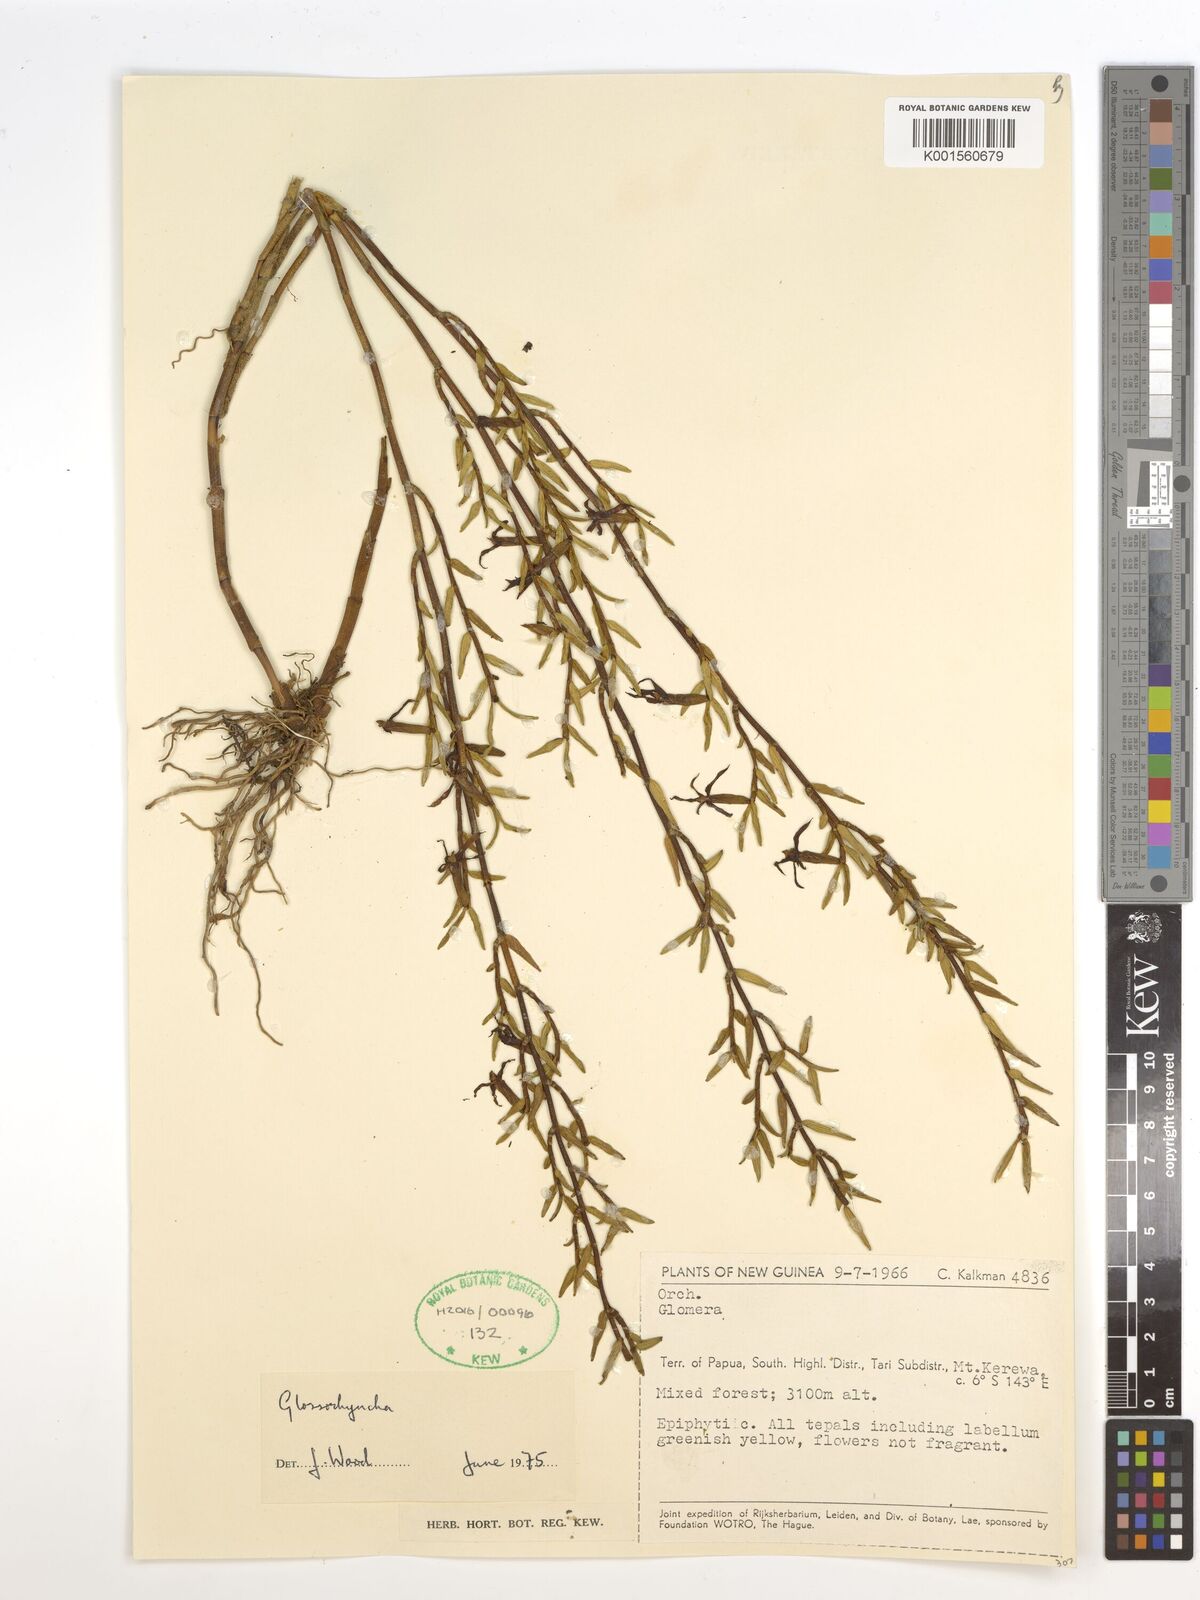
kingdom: Plantae
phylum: Tracheophyta
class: Liliopsida
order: Asparagales
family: Orchidaceae
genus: Glomera
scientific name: Glomera
